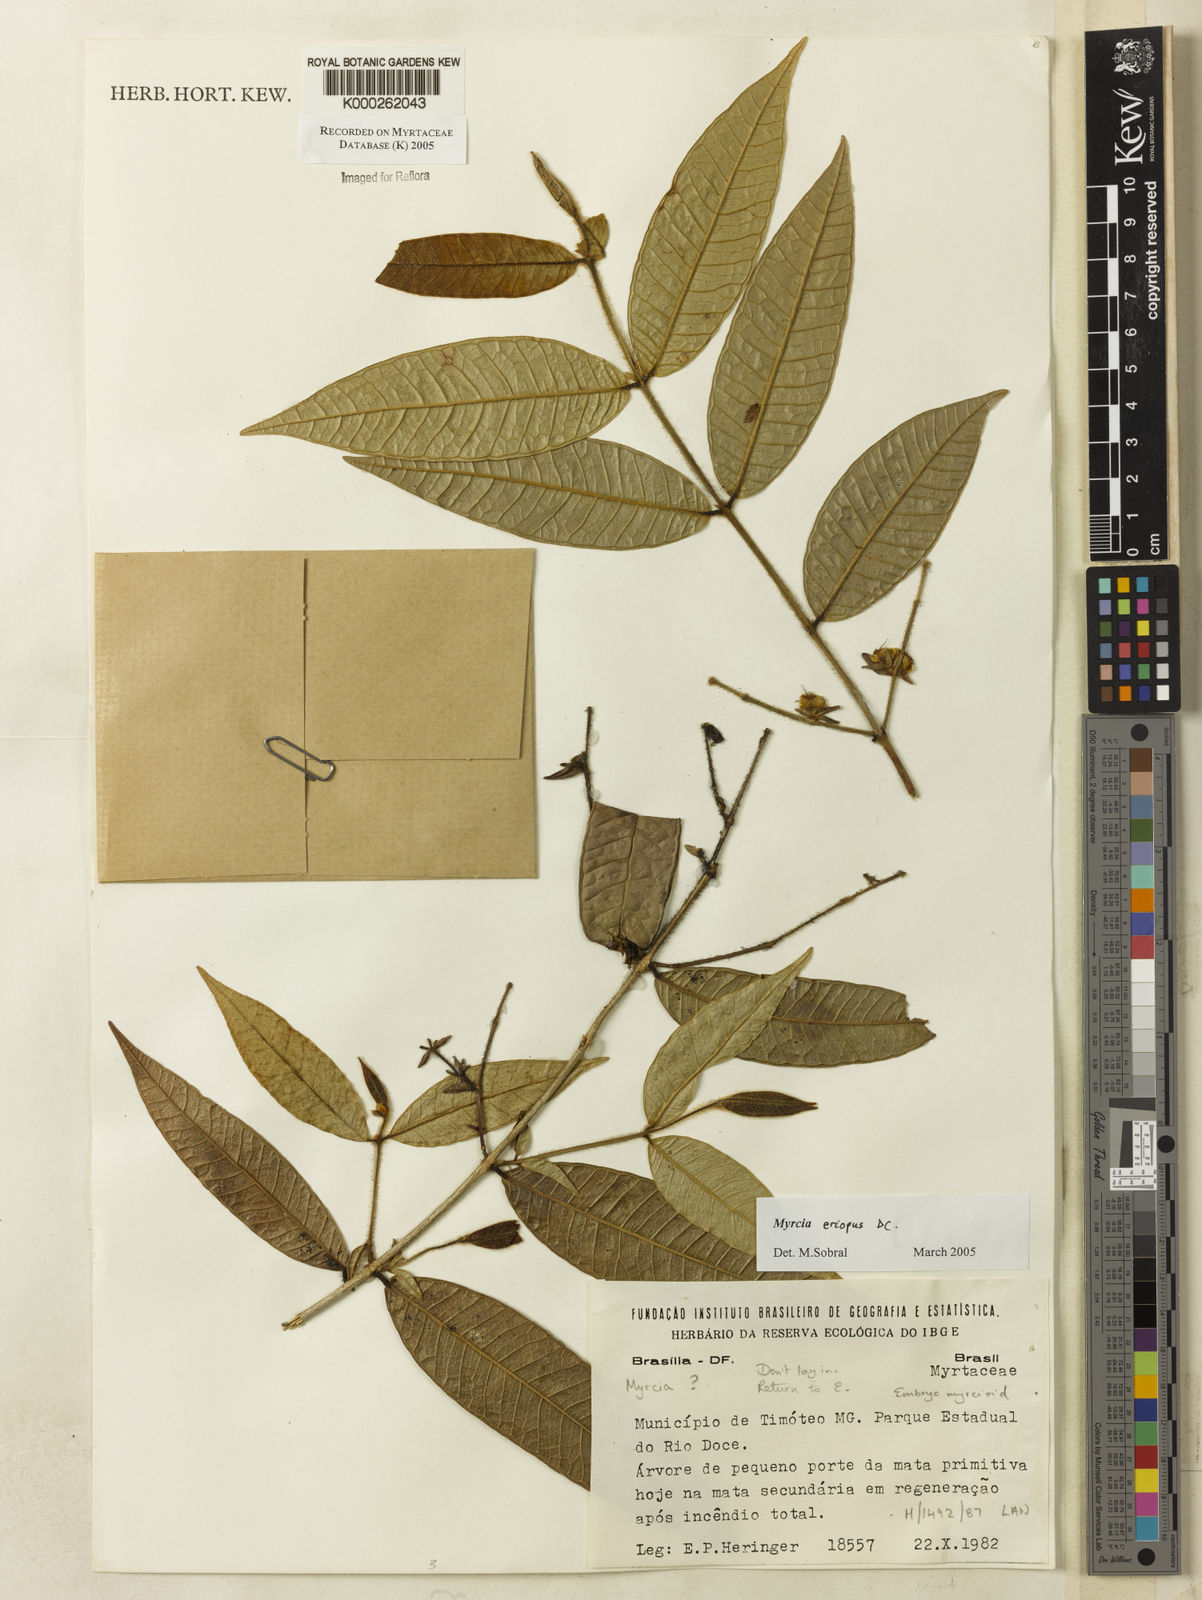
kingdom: Plantae
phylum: Tracheophyta
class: Magnoliopsida
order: Myrtales
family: Myrtaceae
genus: Myrcia
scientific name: Myrcia eriopus
